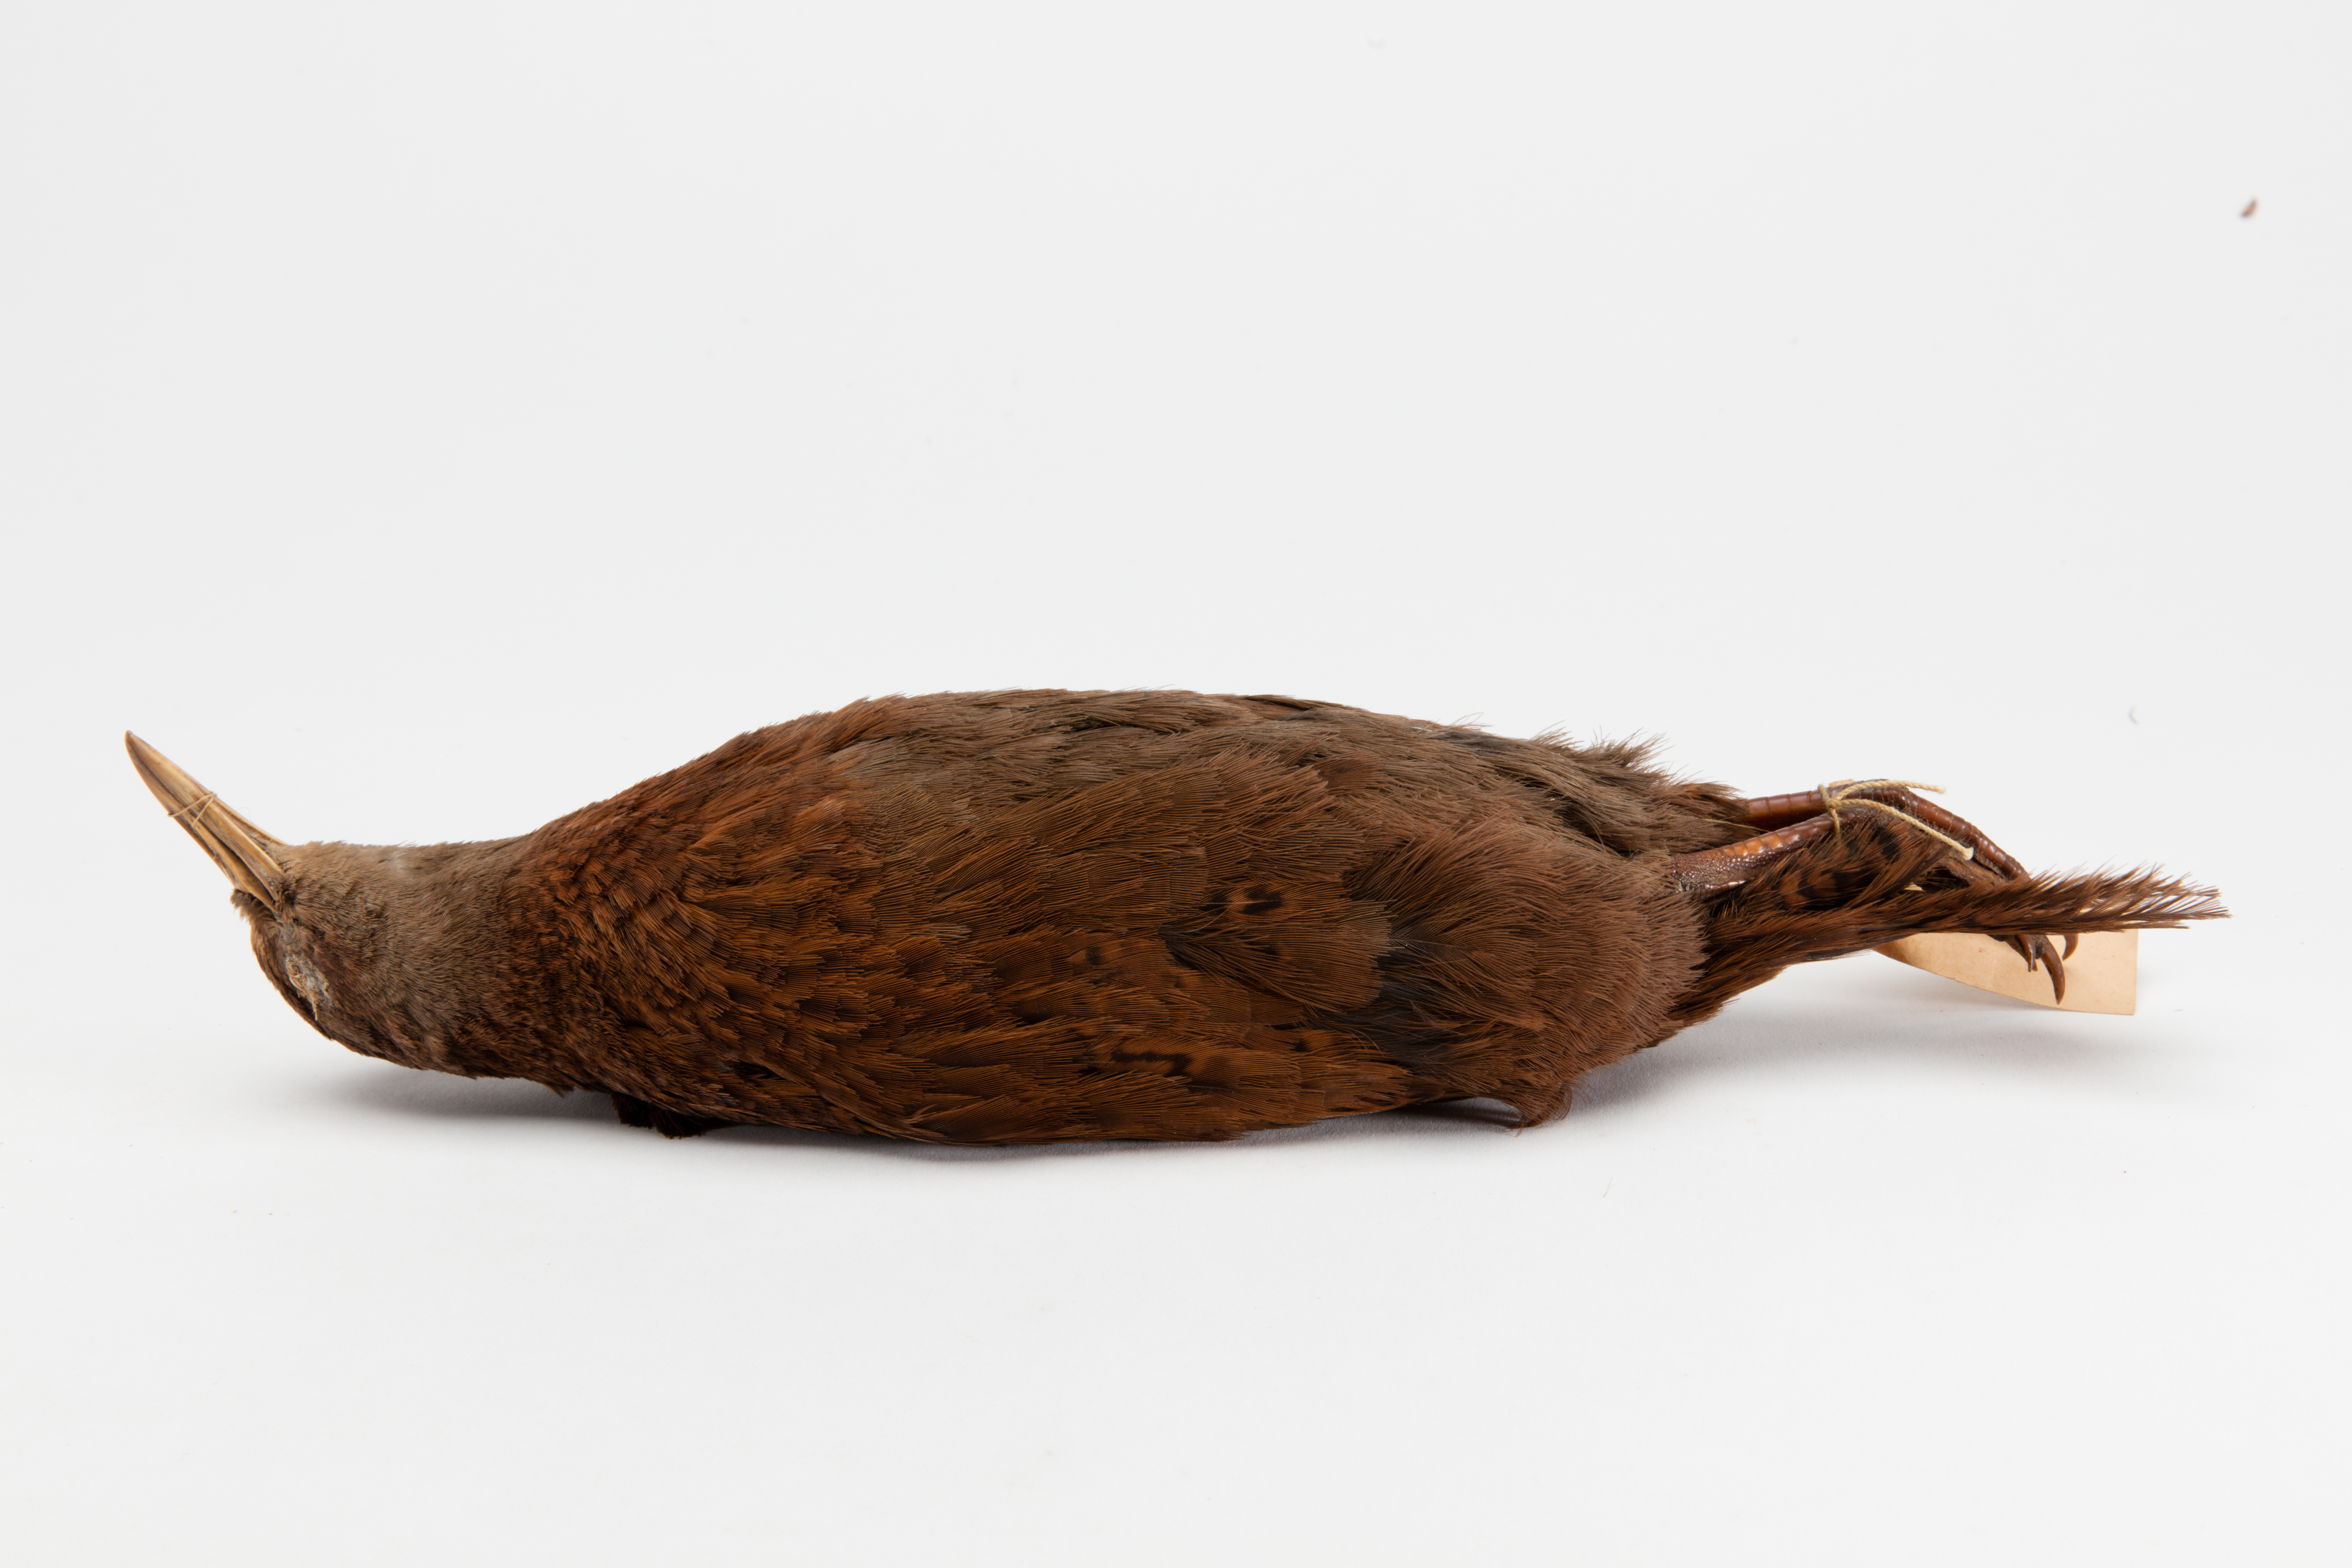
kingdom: Animalia
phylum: Chordata
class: Aves
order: Gruiformes
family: Rallidae
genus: Gallirallus
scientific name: Gallirallus australis
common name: Weka
